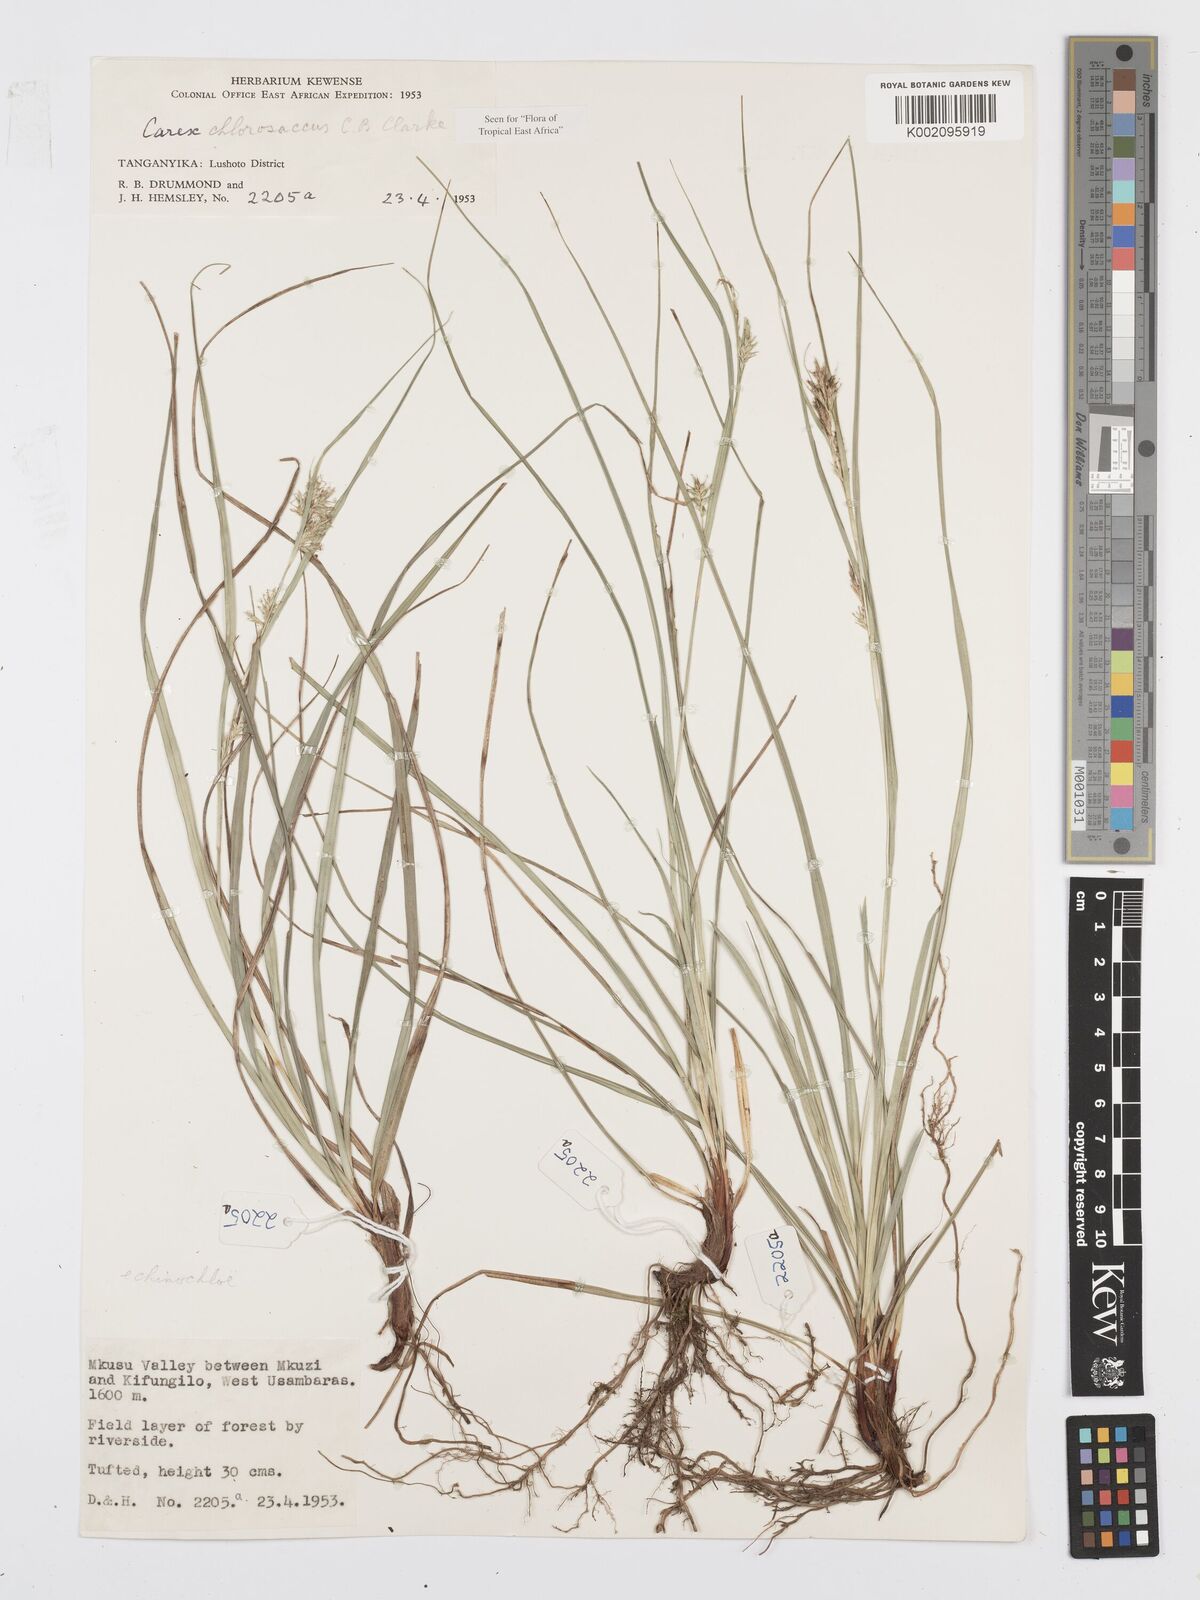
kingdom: Plantae
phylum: Tracheophyta
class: Liliopsida
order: Poales
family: Cyperaceae
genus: Carex
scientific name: Carex chlorosaccus
